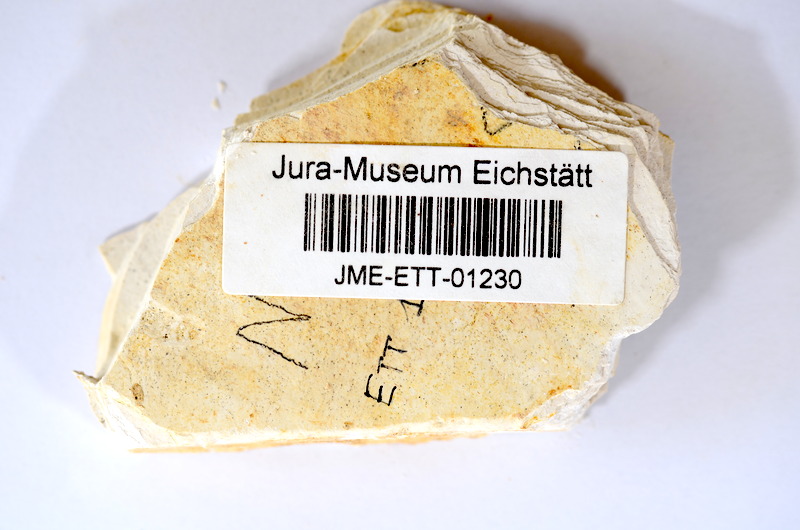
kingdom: Animalia
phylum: Chordata
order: Salmoniformes
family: Orthogonikleithridae
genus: Orthogonikleithrus
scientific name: Orthogonikleithrus hoelli
